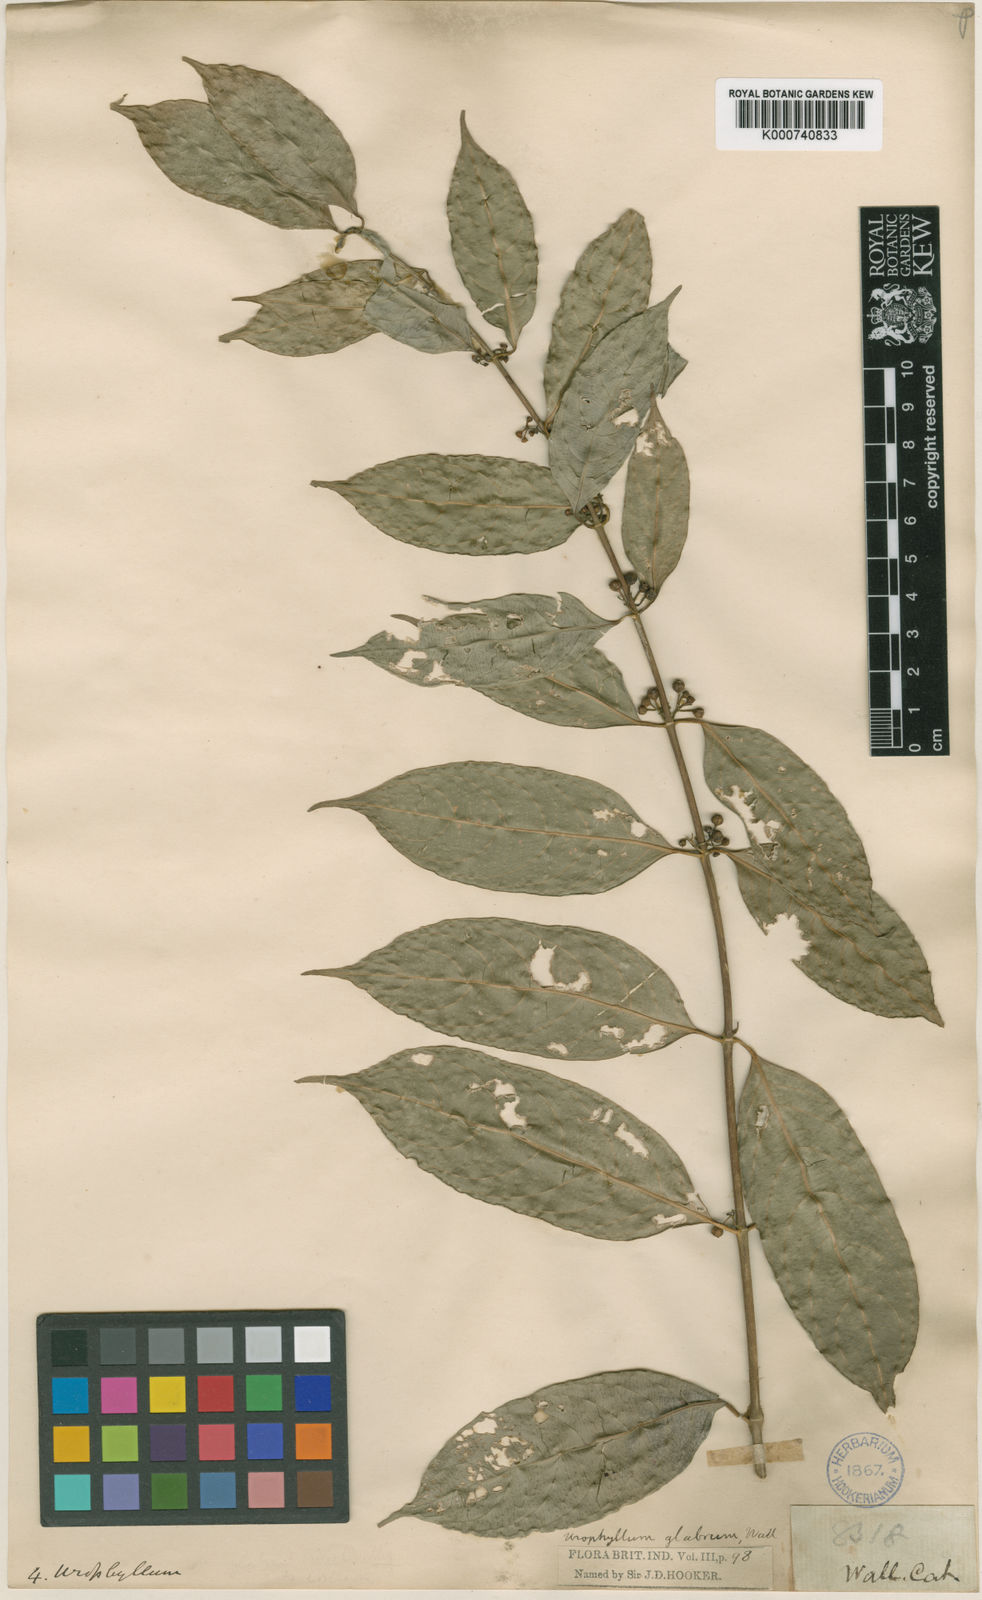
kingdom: Plantae
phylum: Tracheophyta
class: Magnoliopsida
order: Gentianales
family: Rubiaceae
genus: Urophyllum
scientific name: Urophyllum glabrum
